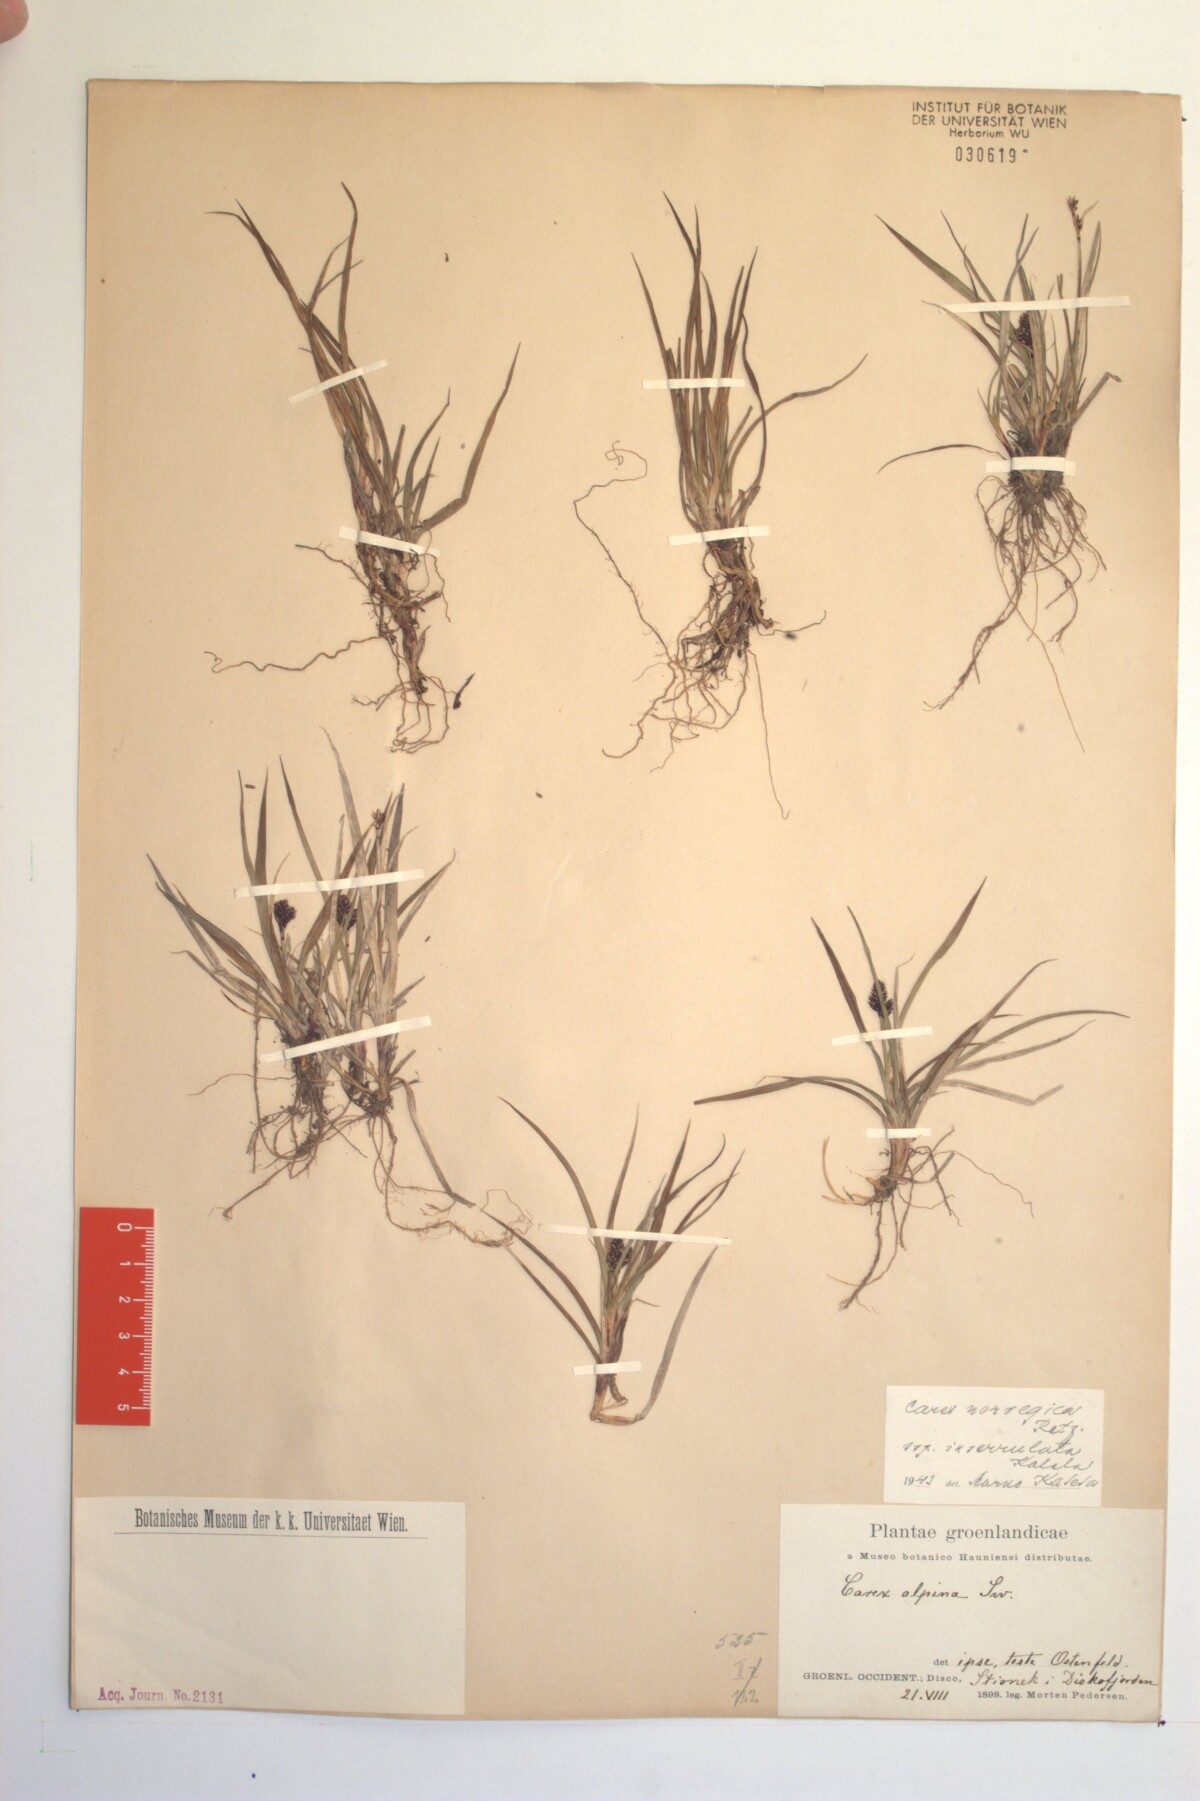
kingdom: Plantae
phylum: Tracheophyta
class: Liliopsida
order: Poales
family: Cyperaceae
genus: Carex
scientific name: Carex norvegica
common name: Close-headed alpine-sedge
